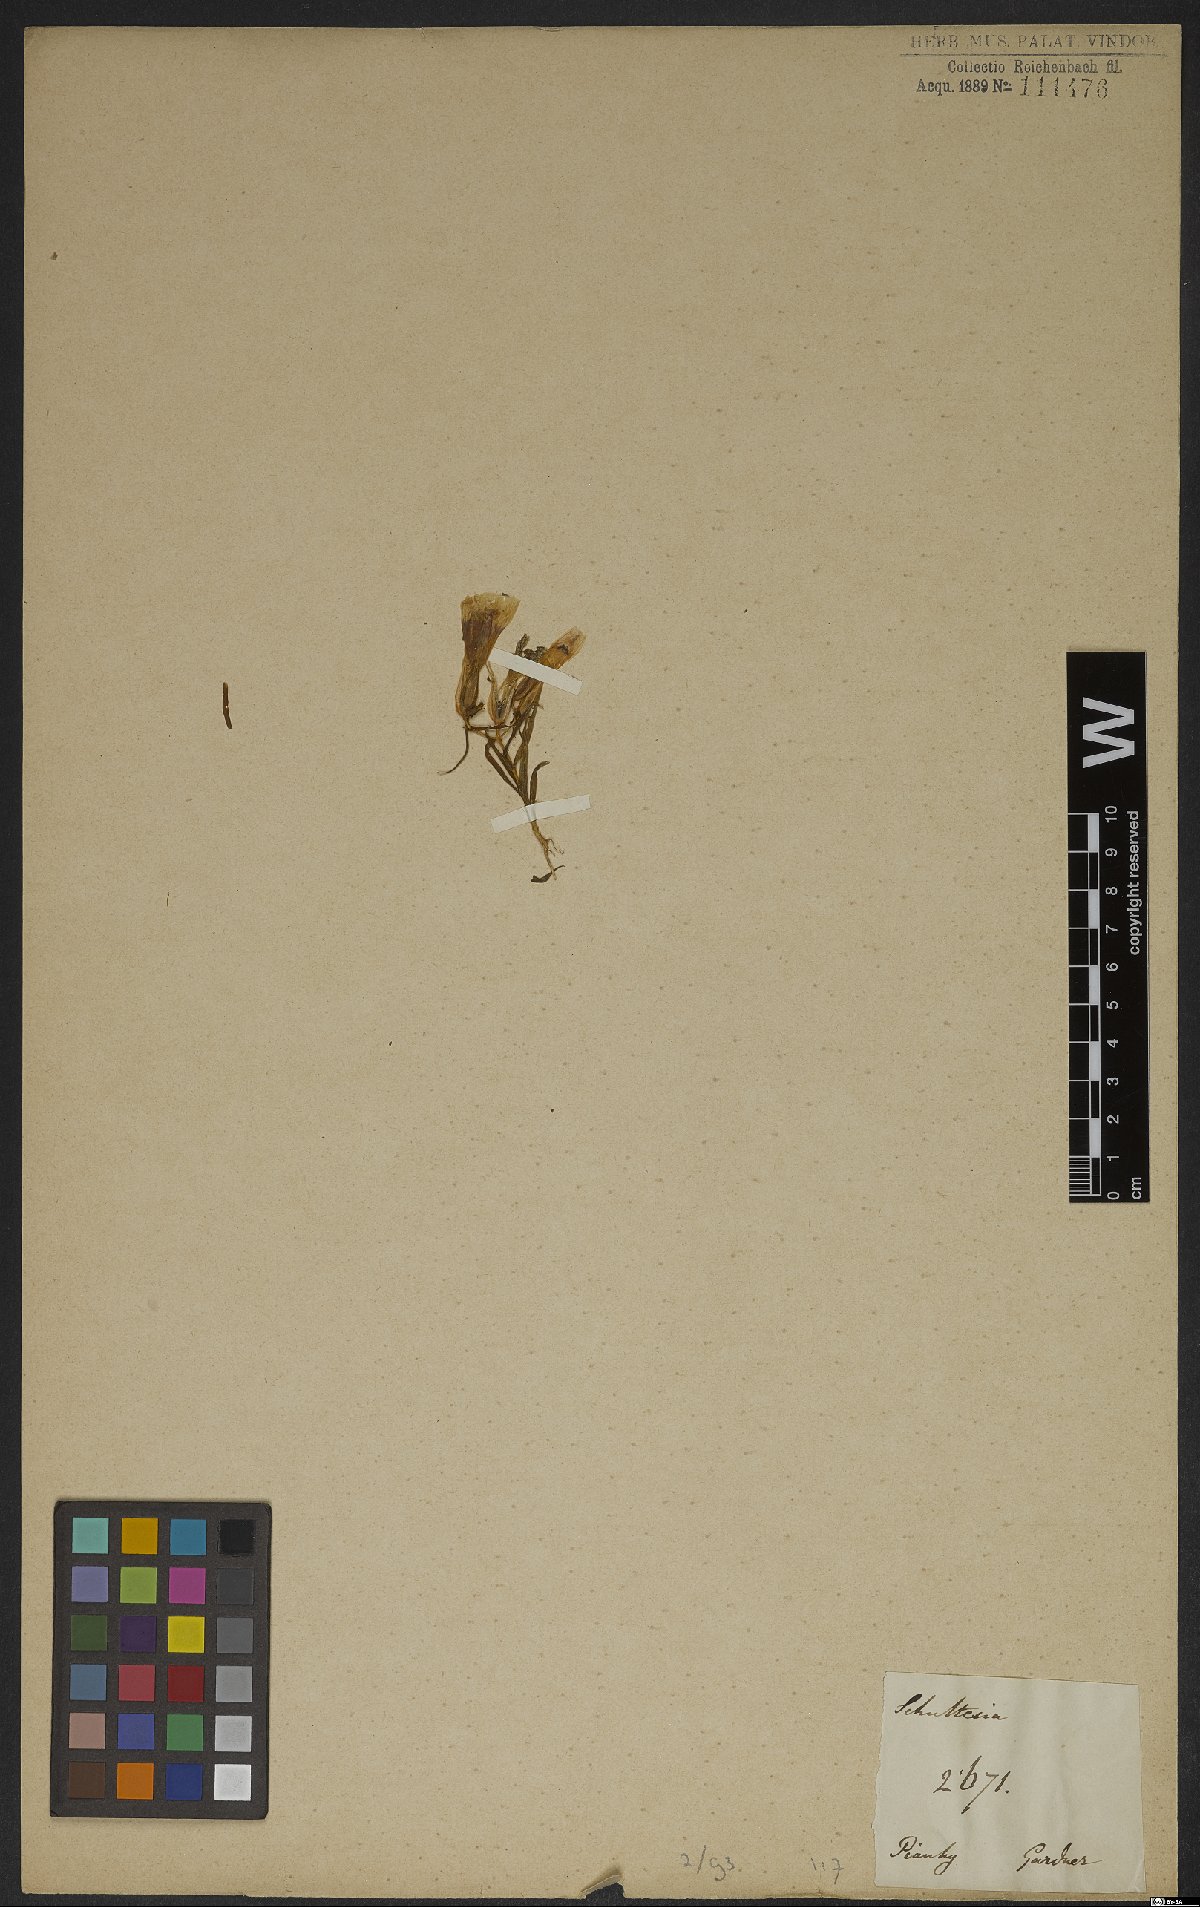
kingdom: Plantae
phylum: Tracheophyta
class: Magnoliopsida
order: Gentianales
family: Gentianaceae
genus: Schultesia
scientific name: Schultesia
